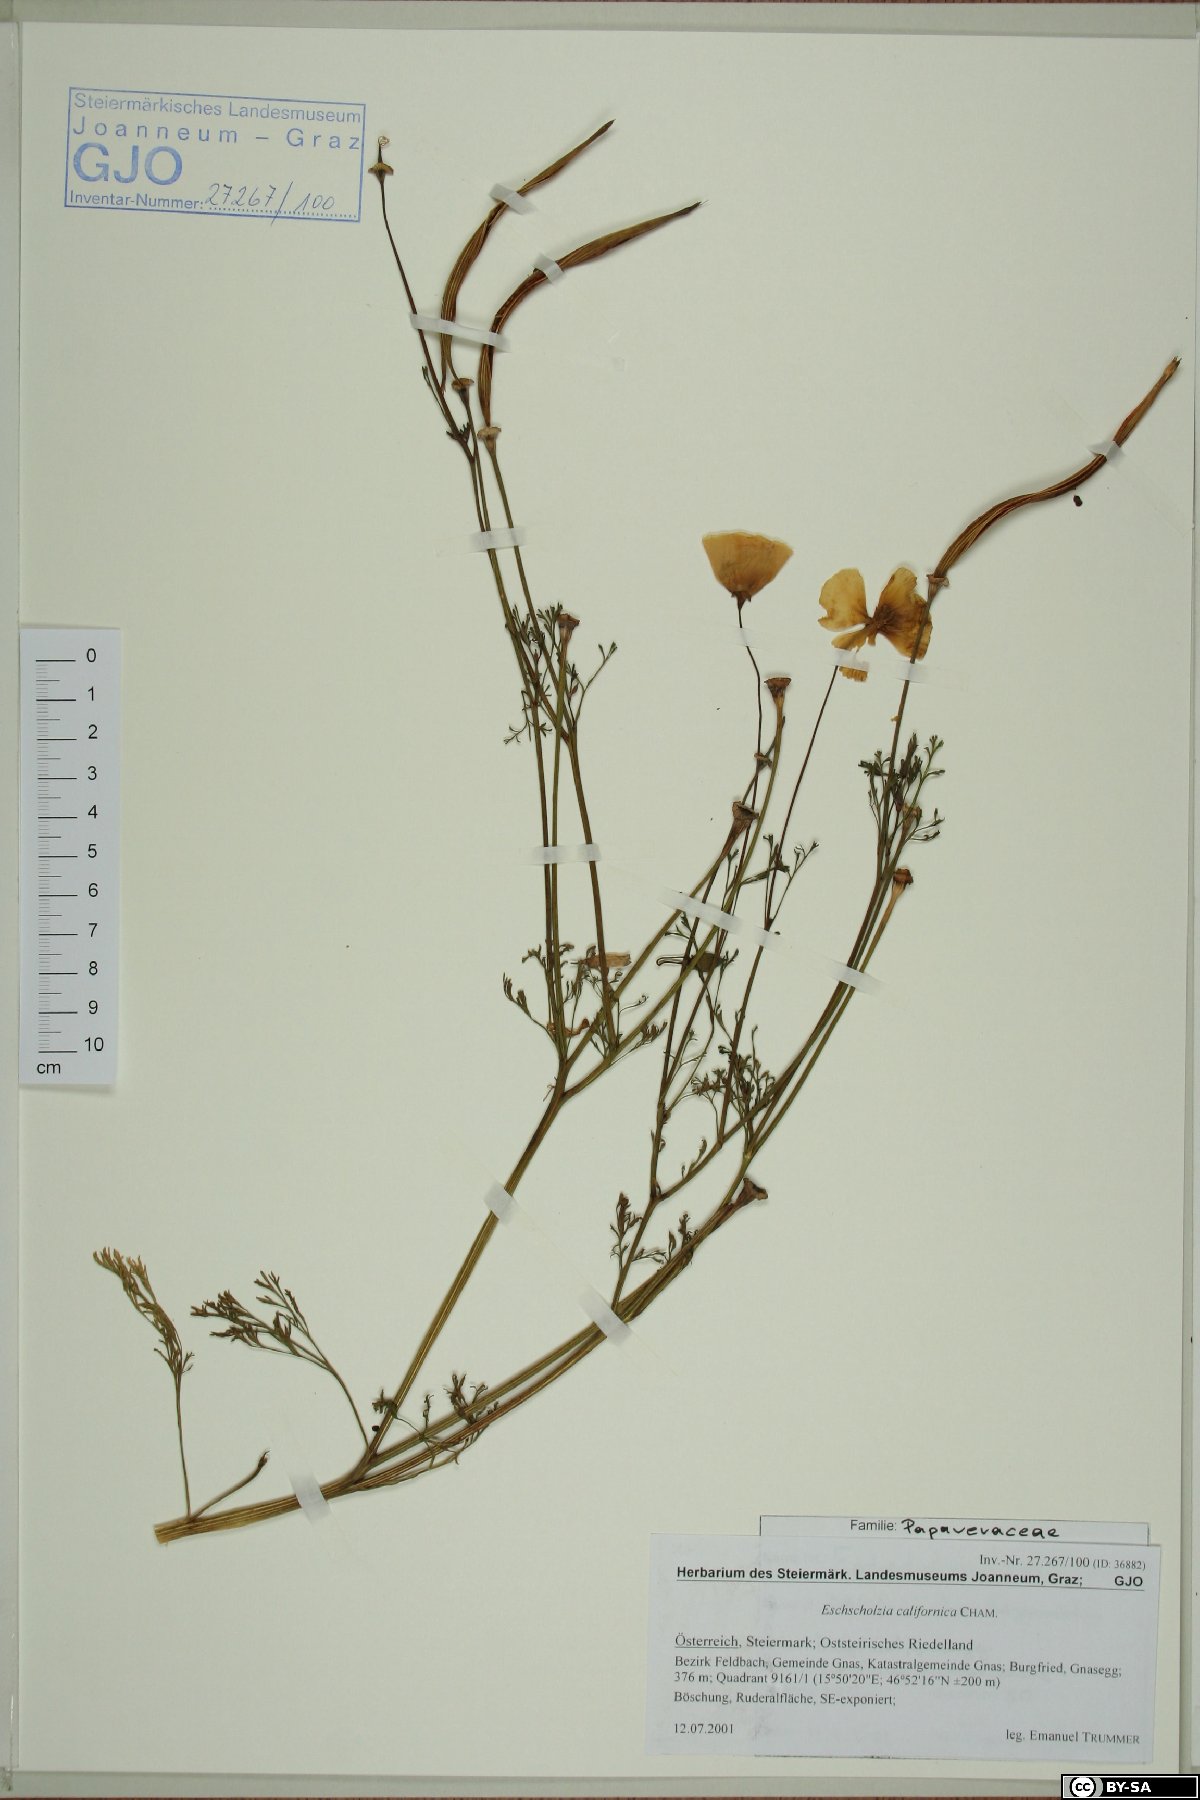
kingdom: Plantae
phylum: Tracheophyta
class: Magnoliopsida
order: Ranunculales
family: Papaveraceae
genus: Eschscholzia
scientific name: Eschscholzia californica
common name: California poppy
